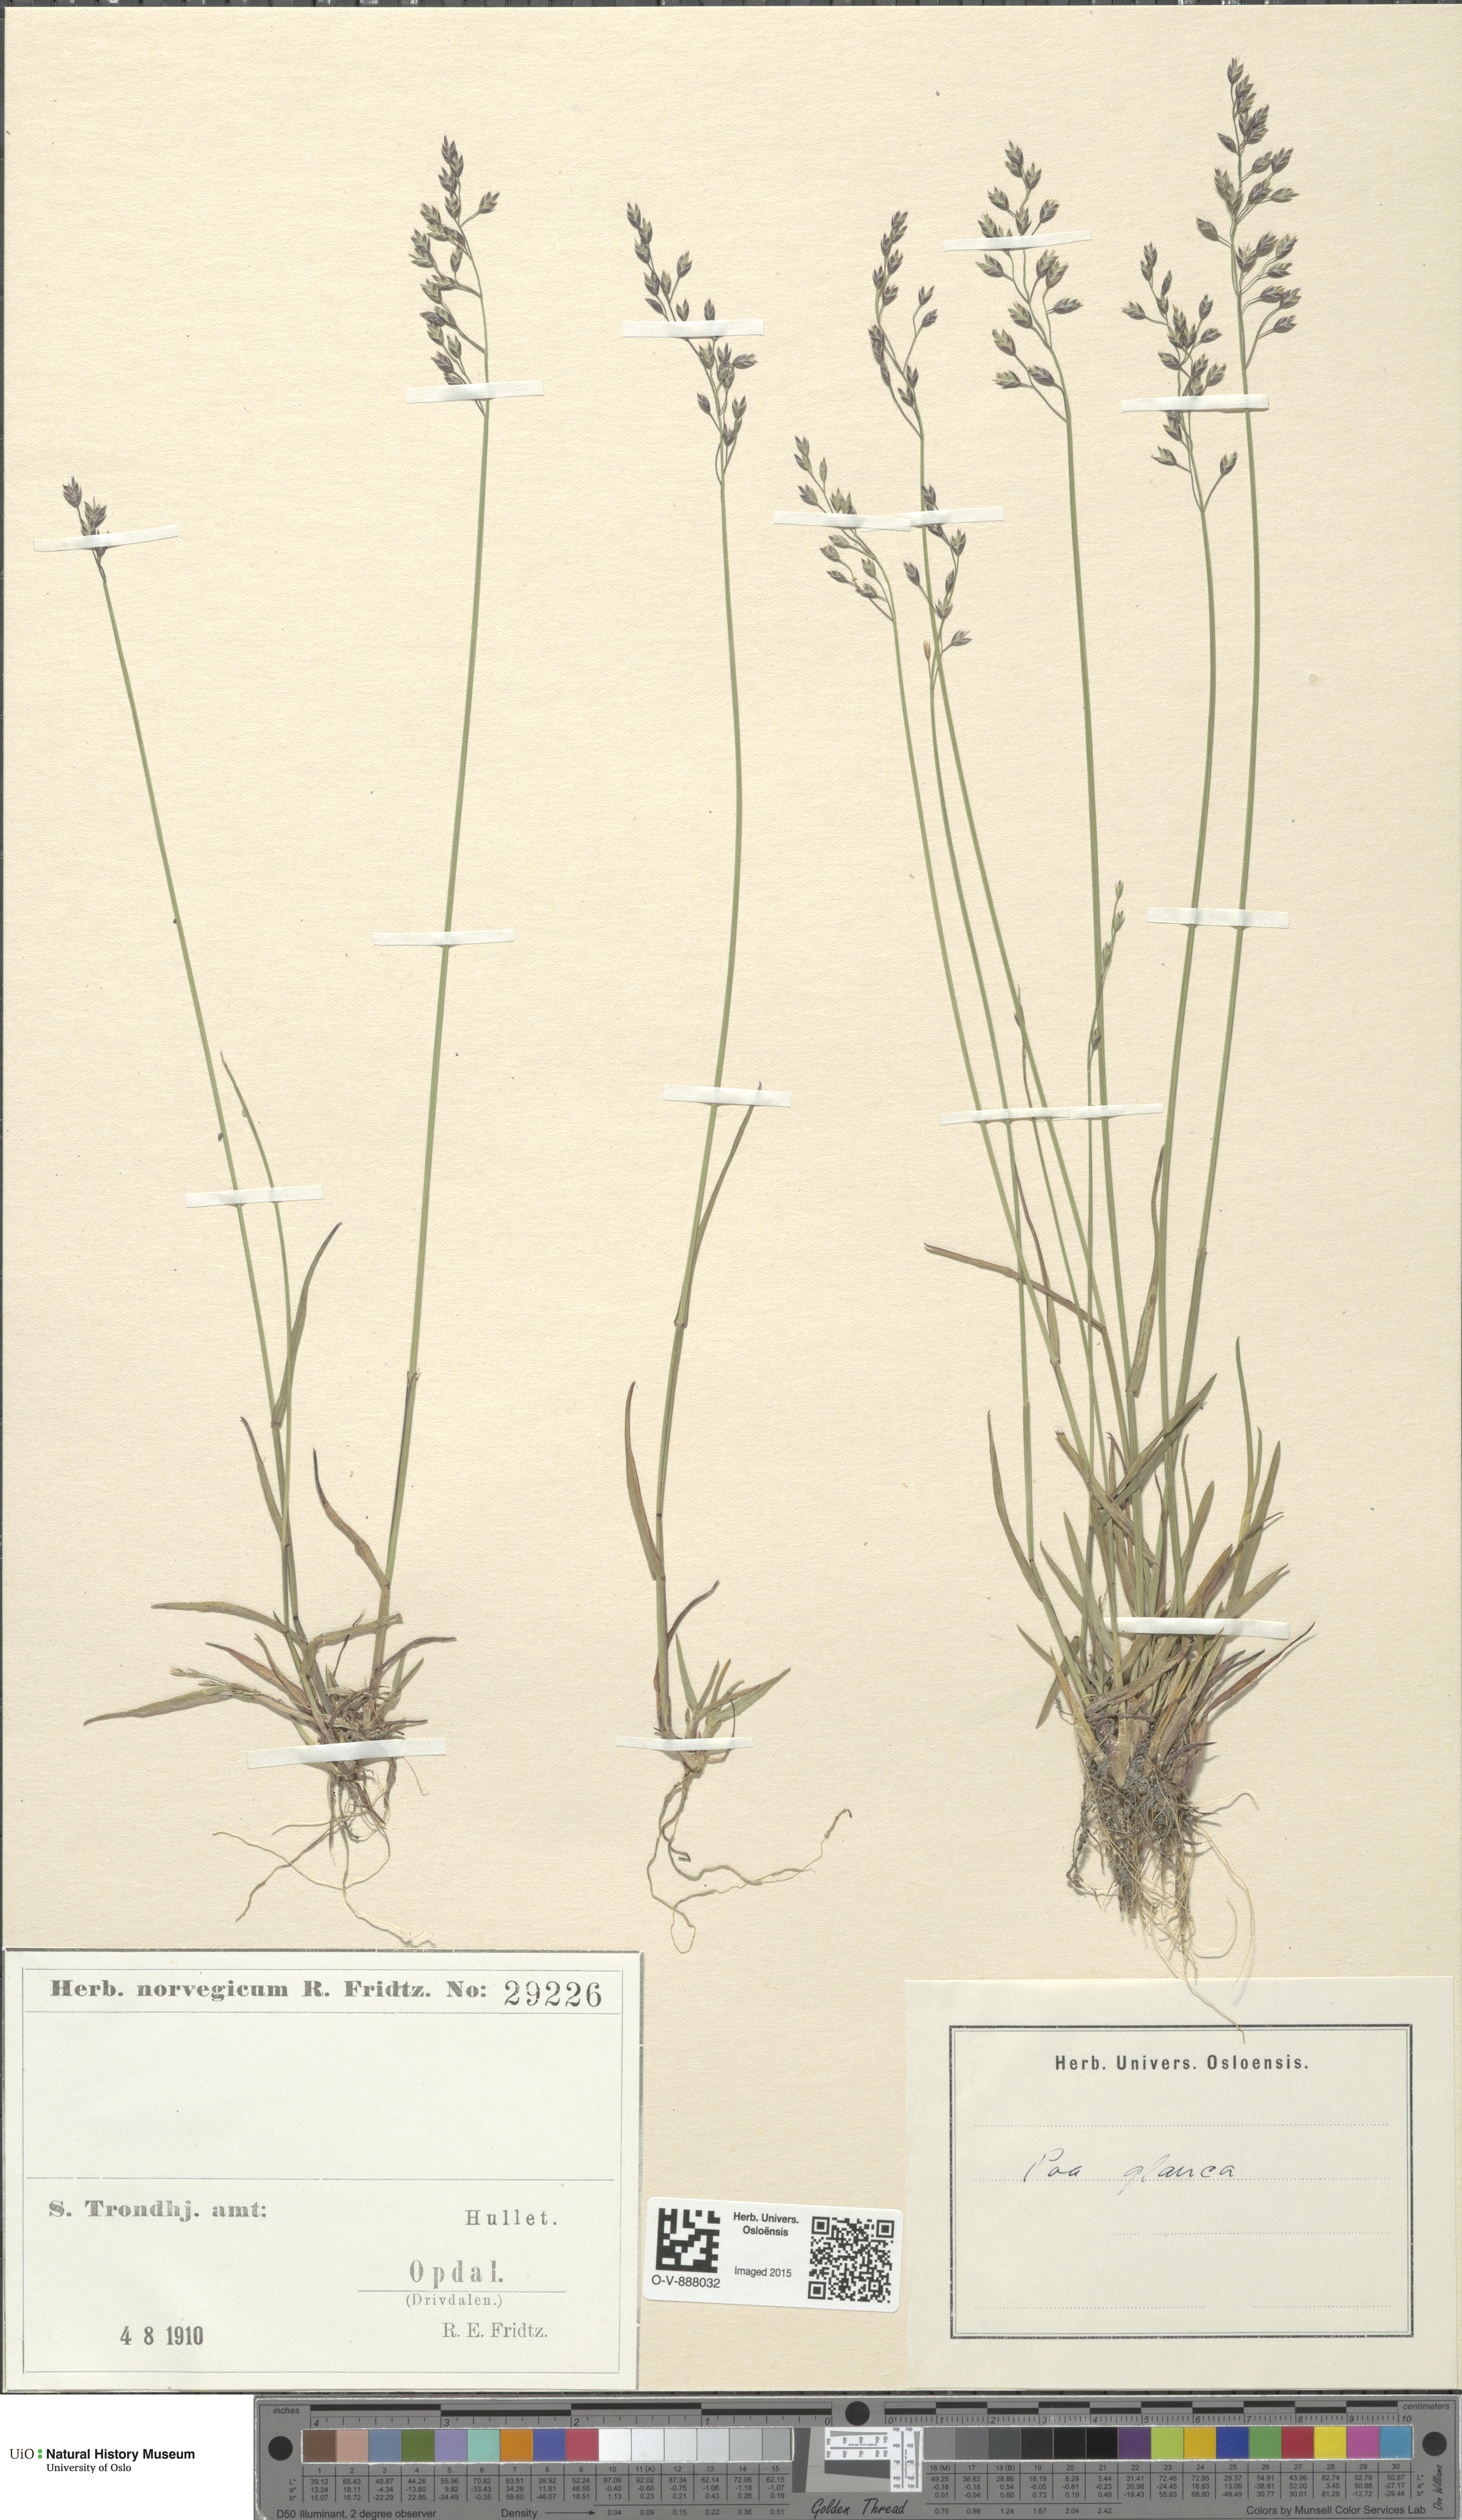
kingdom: Plantae
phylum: Tracheophyta
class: Liliopsida
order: Poales
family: Poaceae
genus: Poa
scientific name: Poa glauca
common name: Glaucous bluegrass
